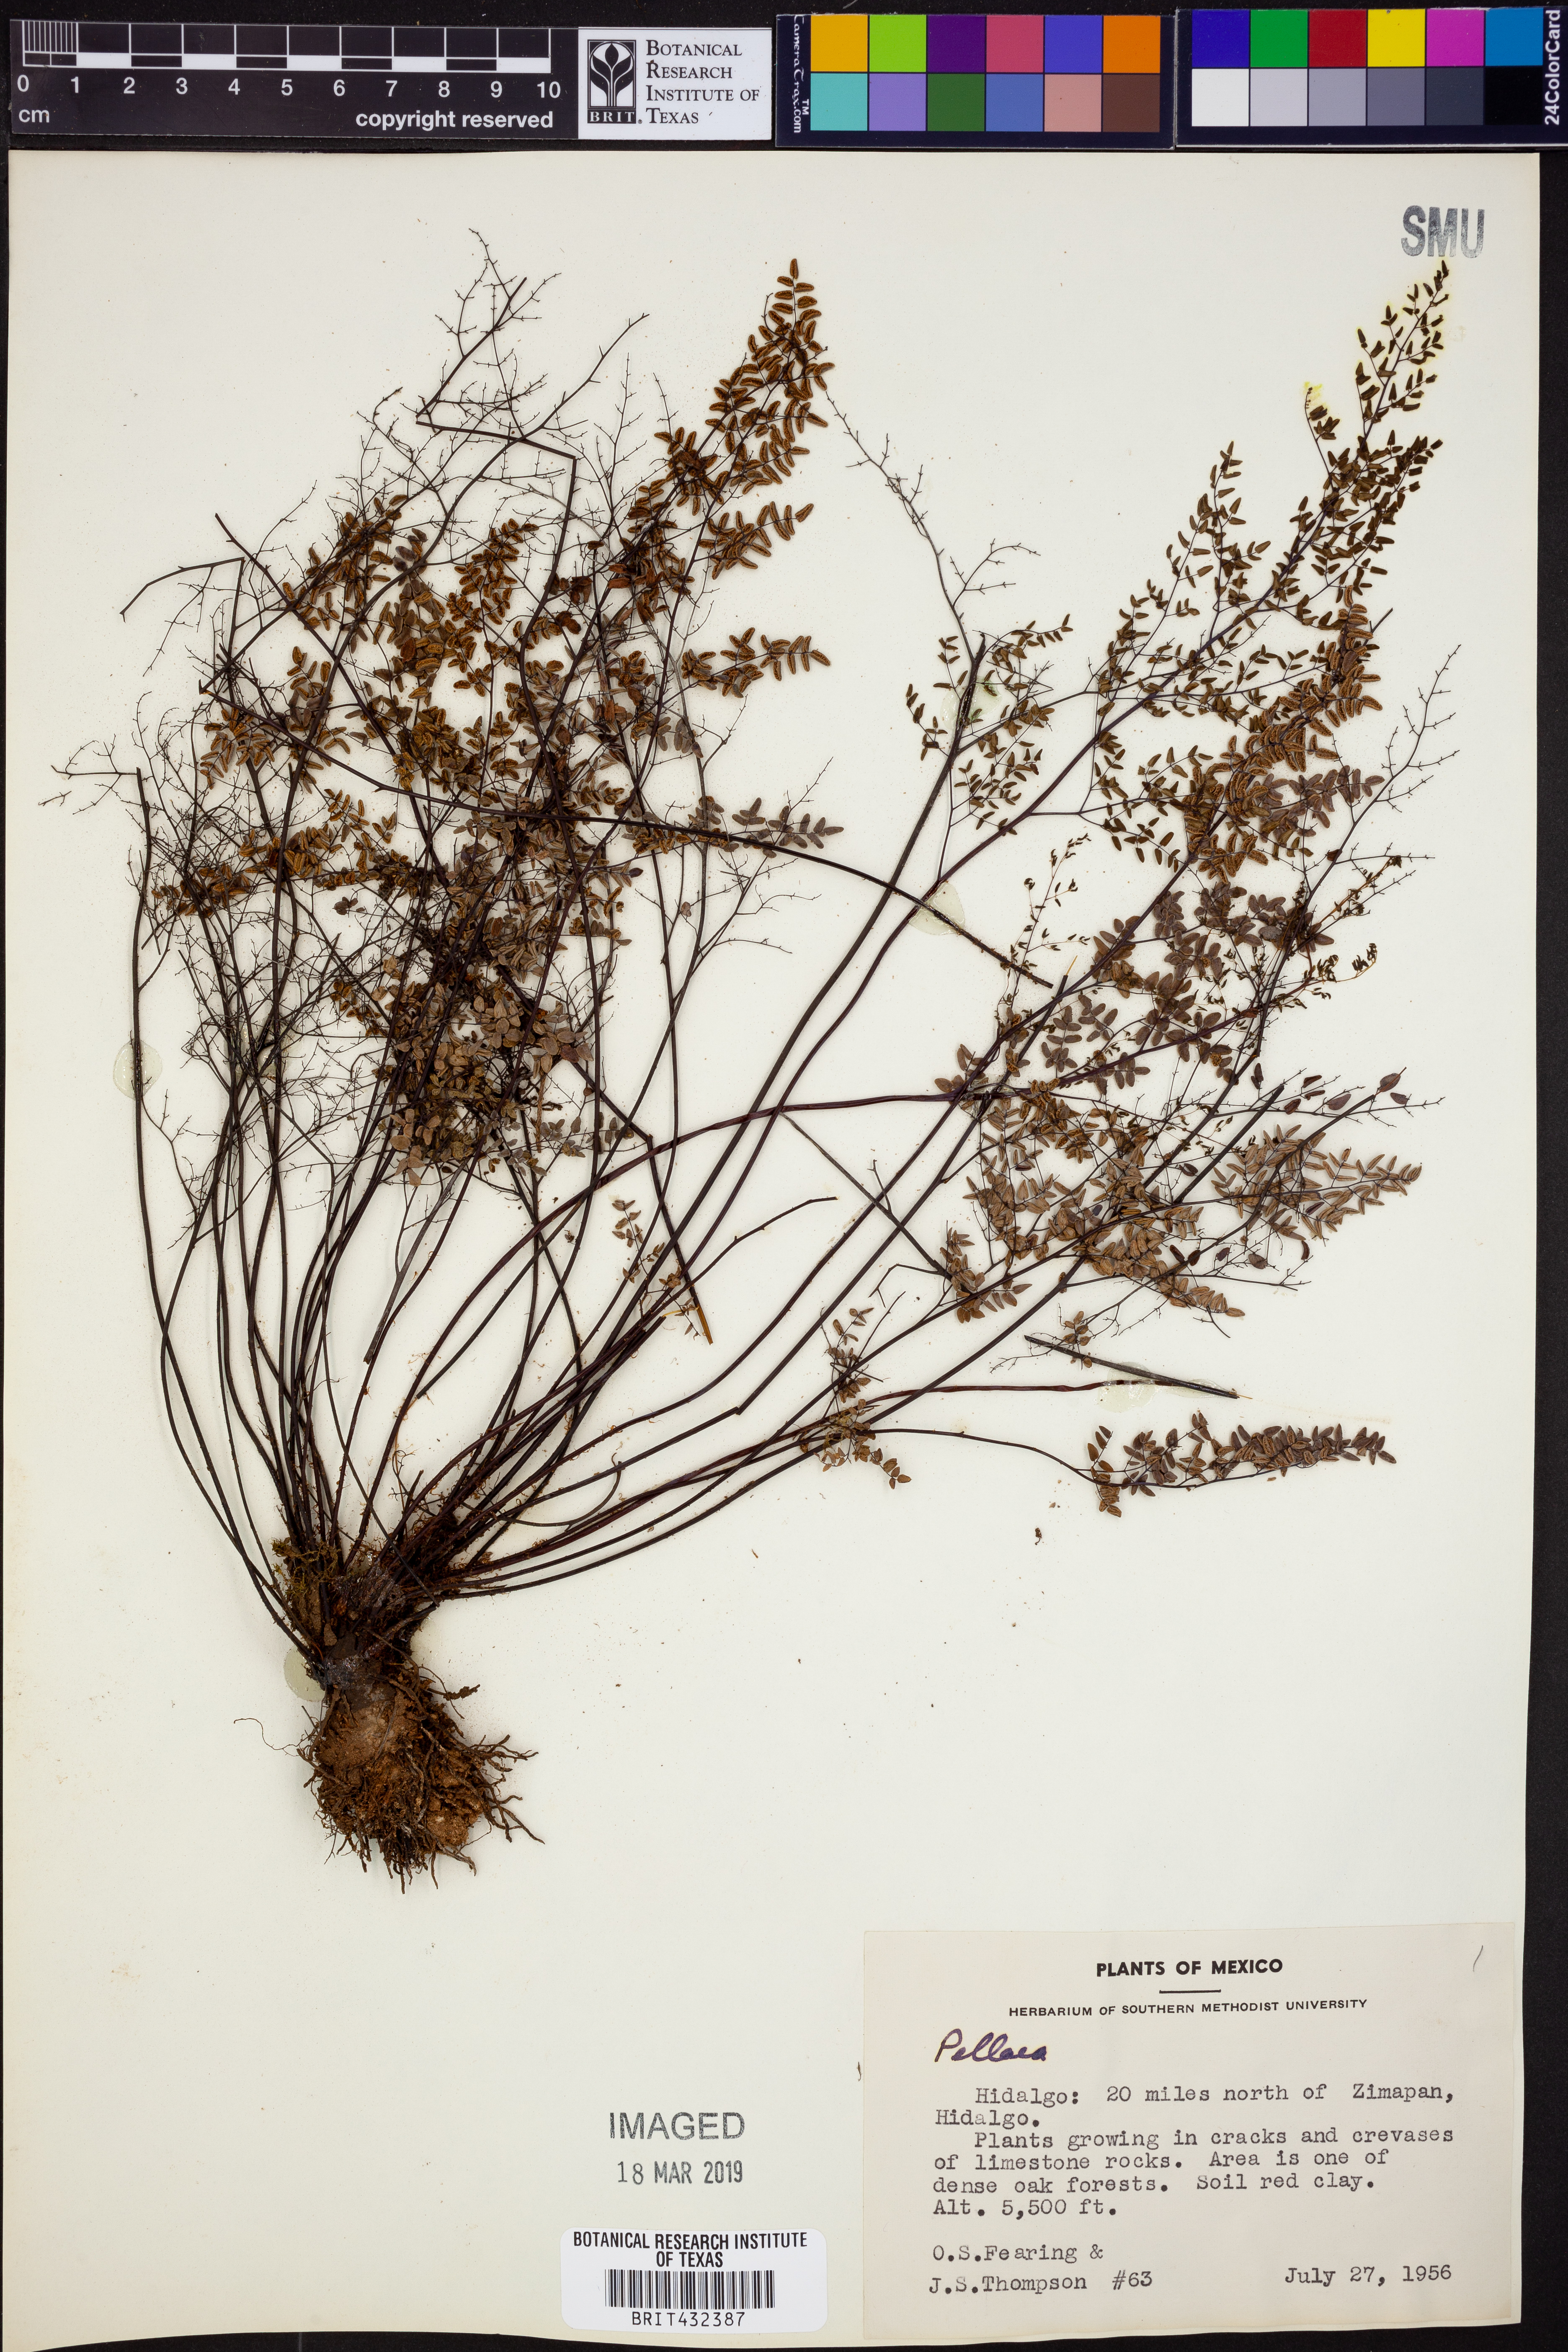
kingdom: Plantae
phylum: Tracheophyta
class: Polypodiopsida
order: Polypodiales
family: Pteridaceae
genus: Pellaea
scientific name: Pellaea
